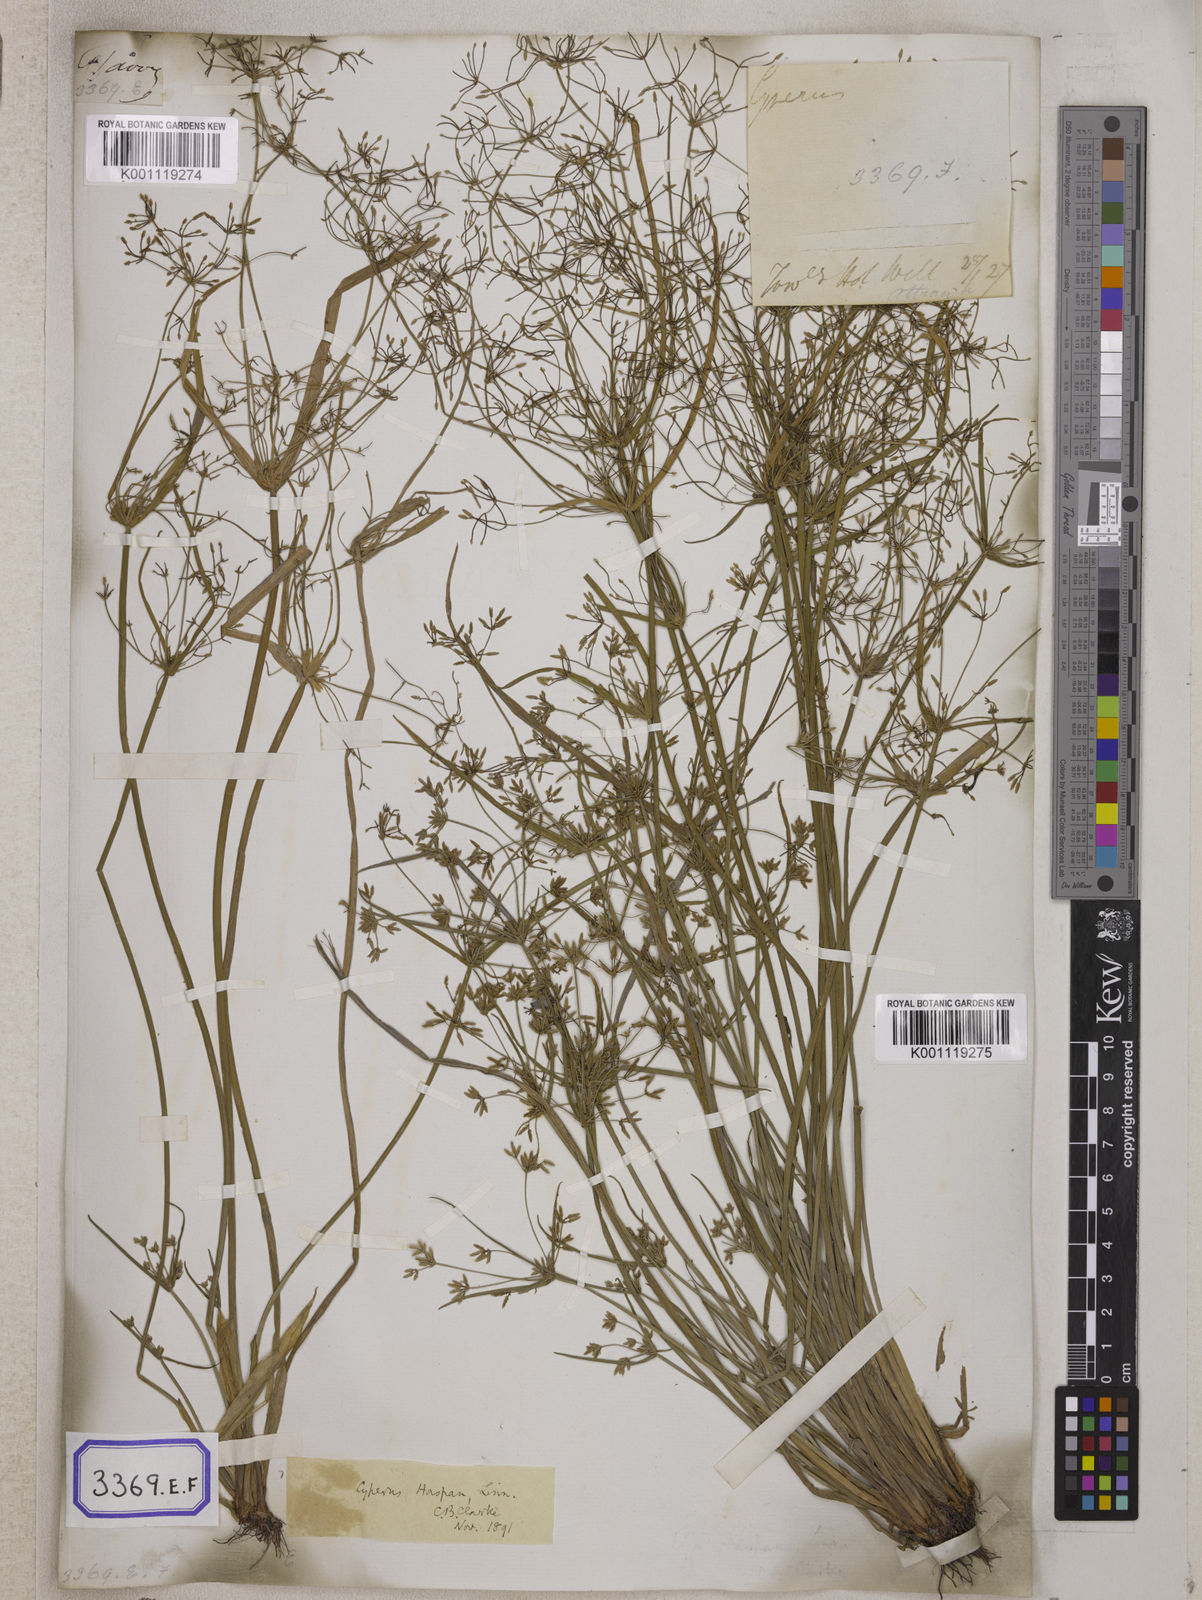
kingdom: Plantae
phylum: Tracheophyta
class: Liliopsida
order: Poales
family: Cyperaceae
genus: Cyperus
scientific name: Cyperus
